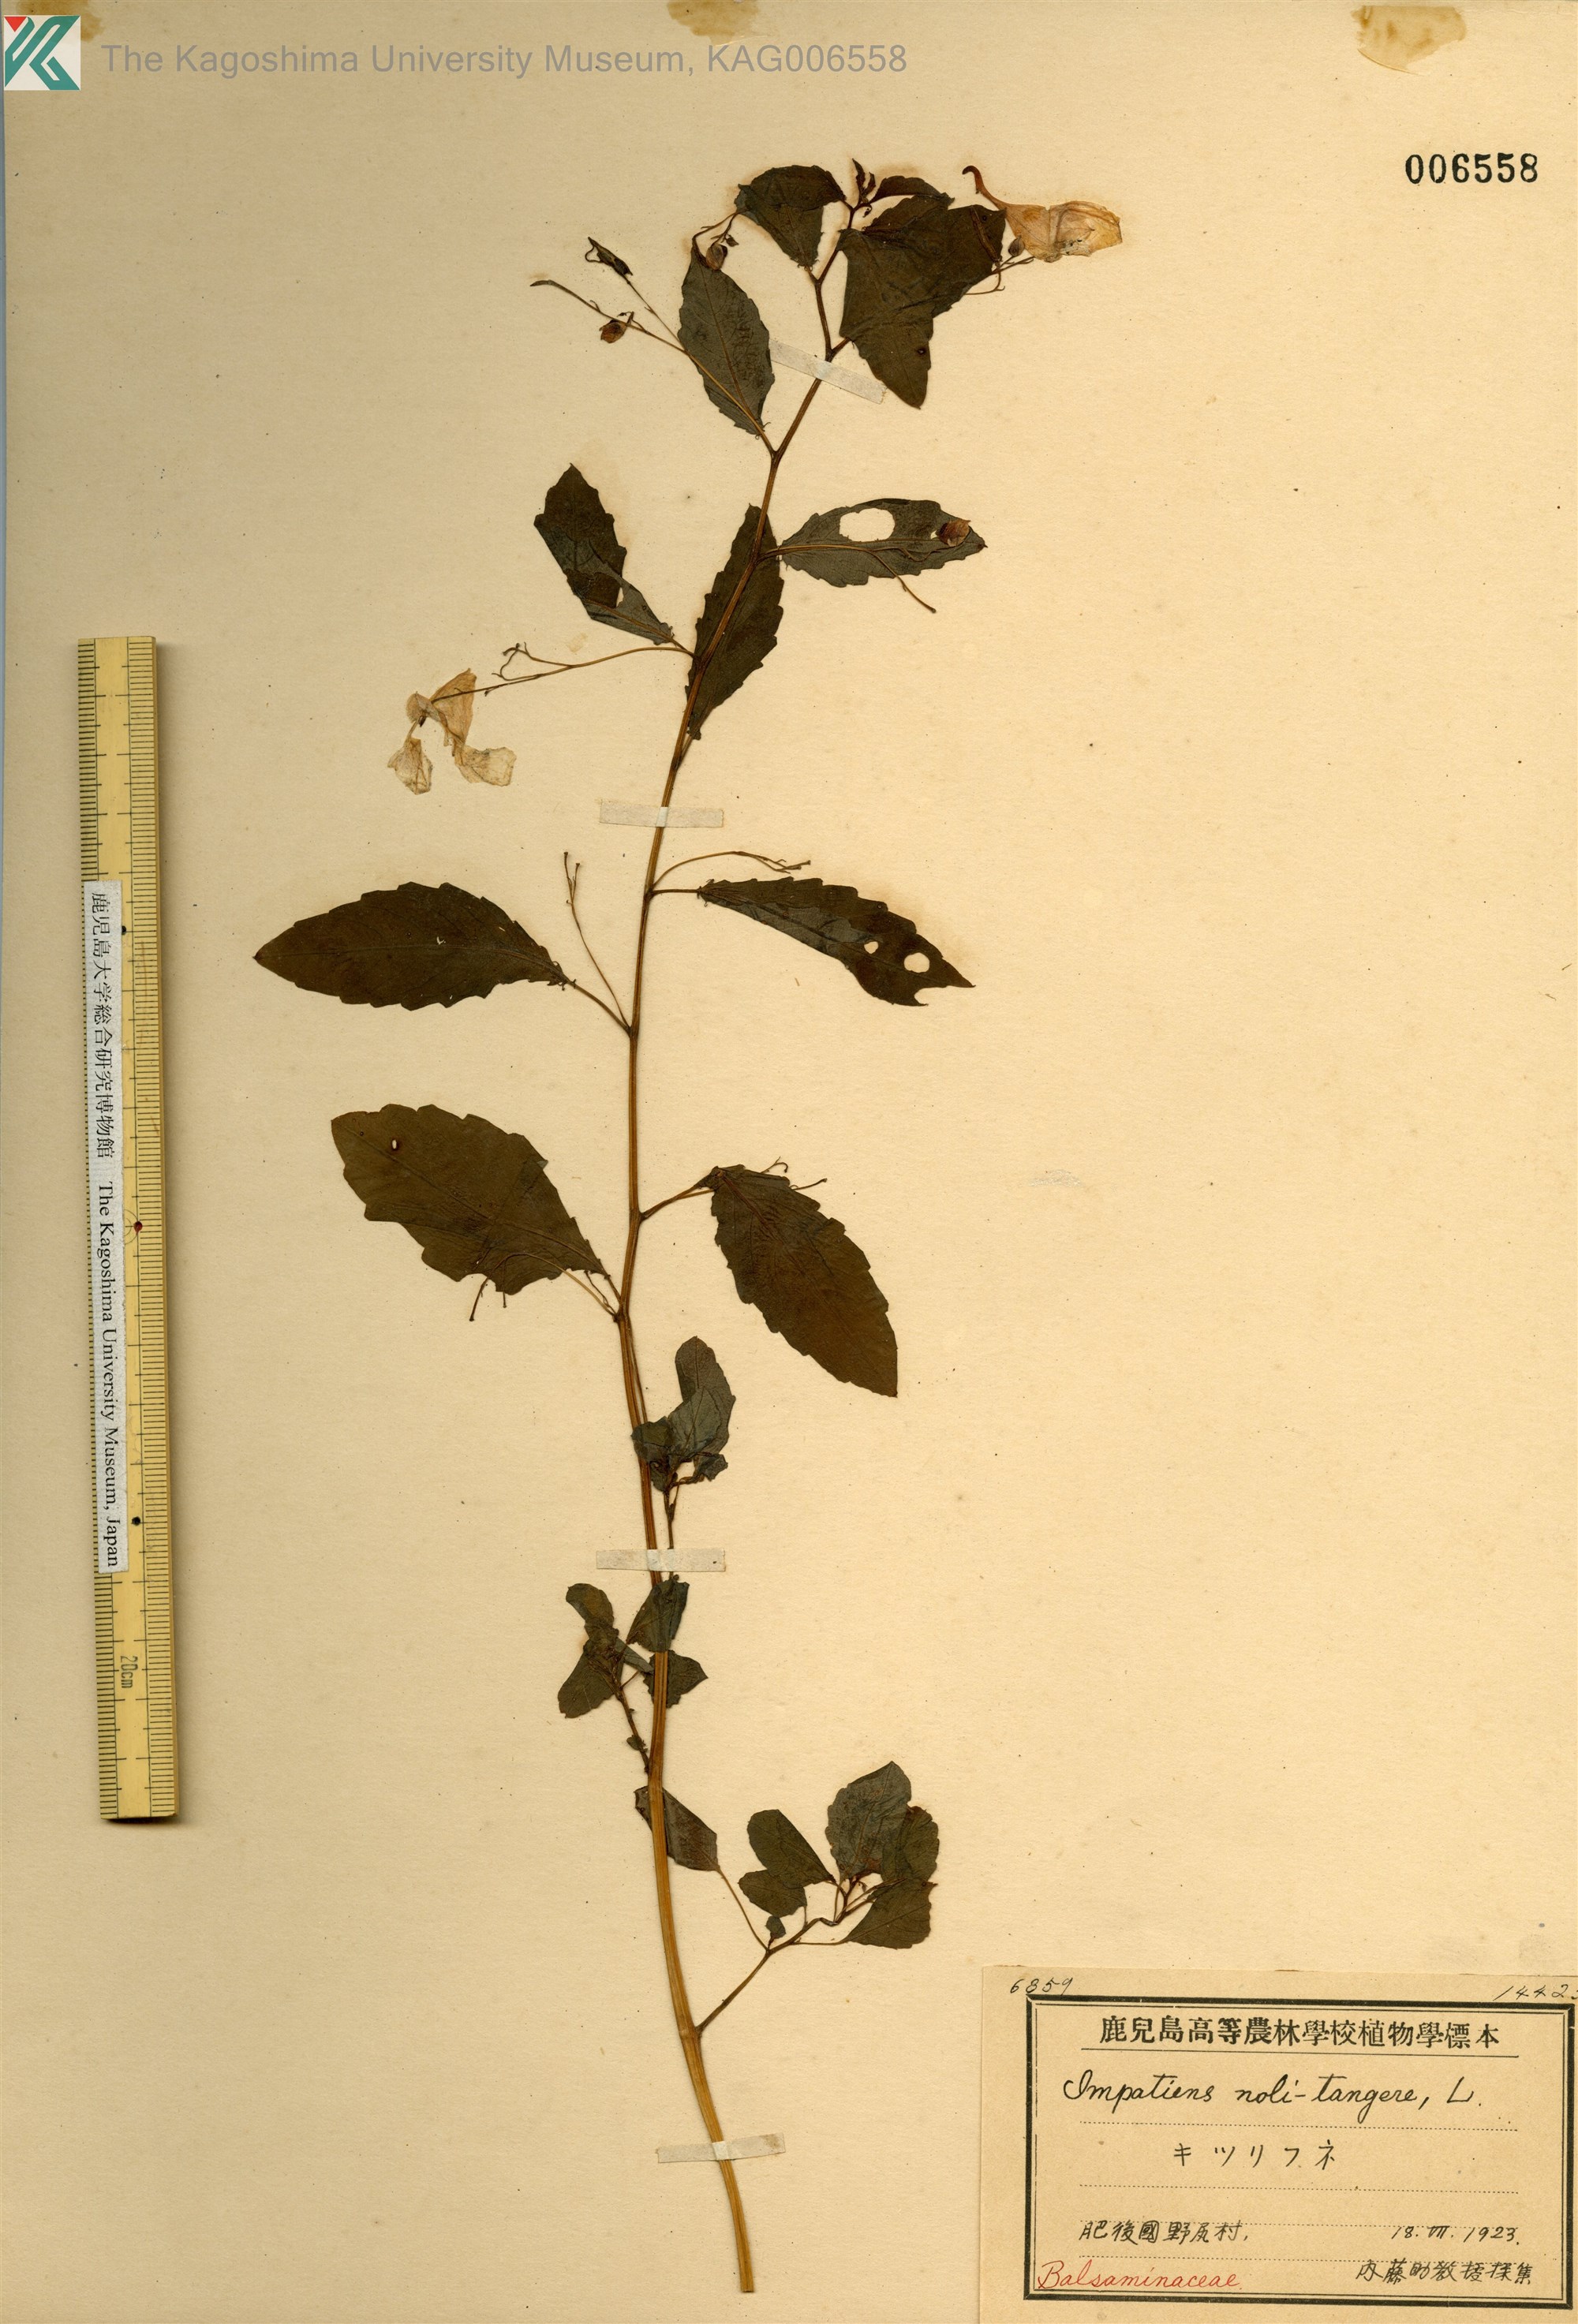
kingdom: Plantae
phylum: Tracheophyta
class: Magnoliopsida
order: Ericales
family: Balsaminaceae
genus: Impatiens
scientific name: Impatiens noli-tangere
